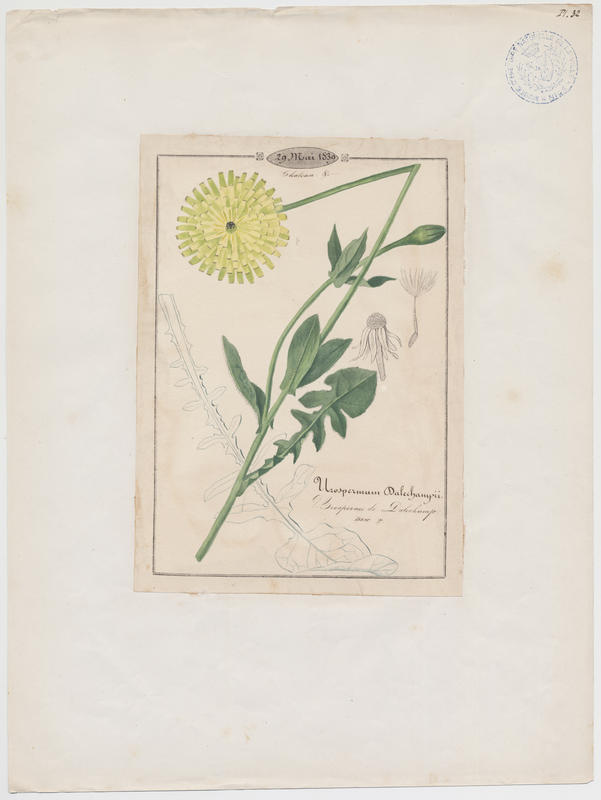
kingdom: Plantae
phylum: Tracheophyta
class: Magnoliopsida
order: Asterales
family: Asteraceae
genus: Urospermum
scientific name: Urospermum dalechampii
